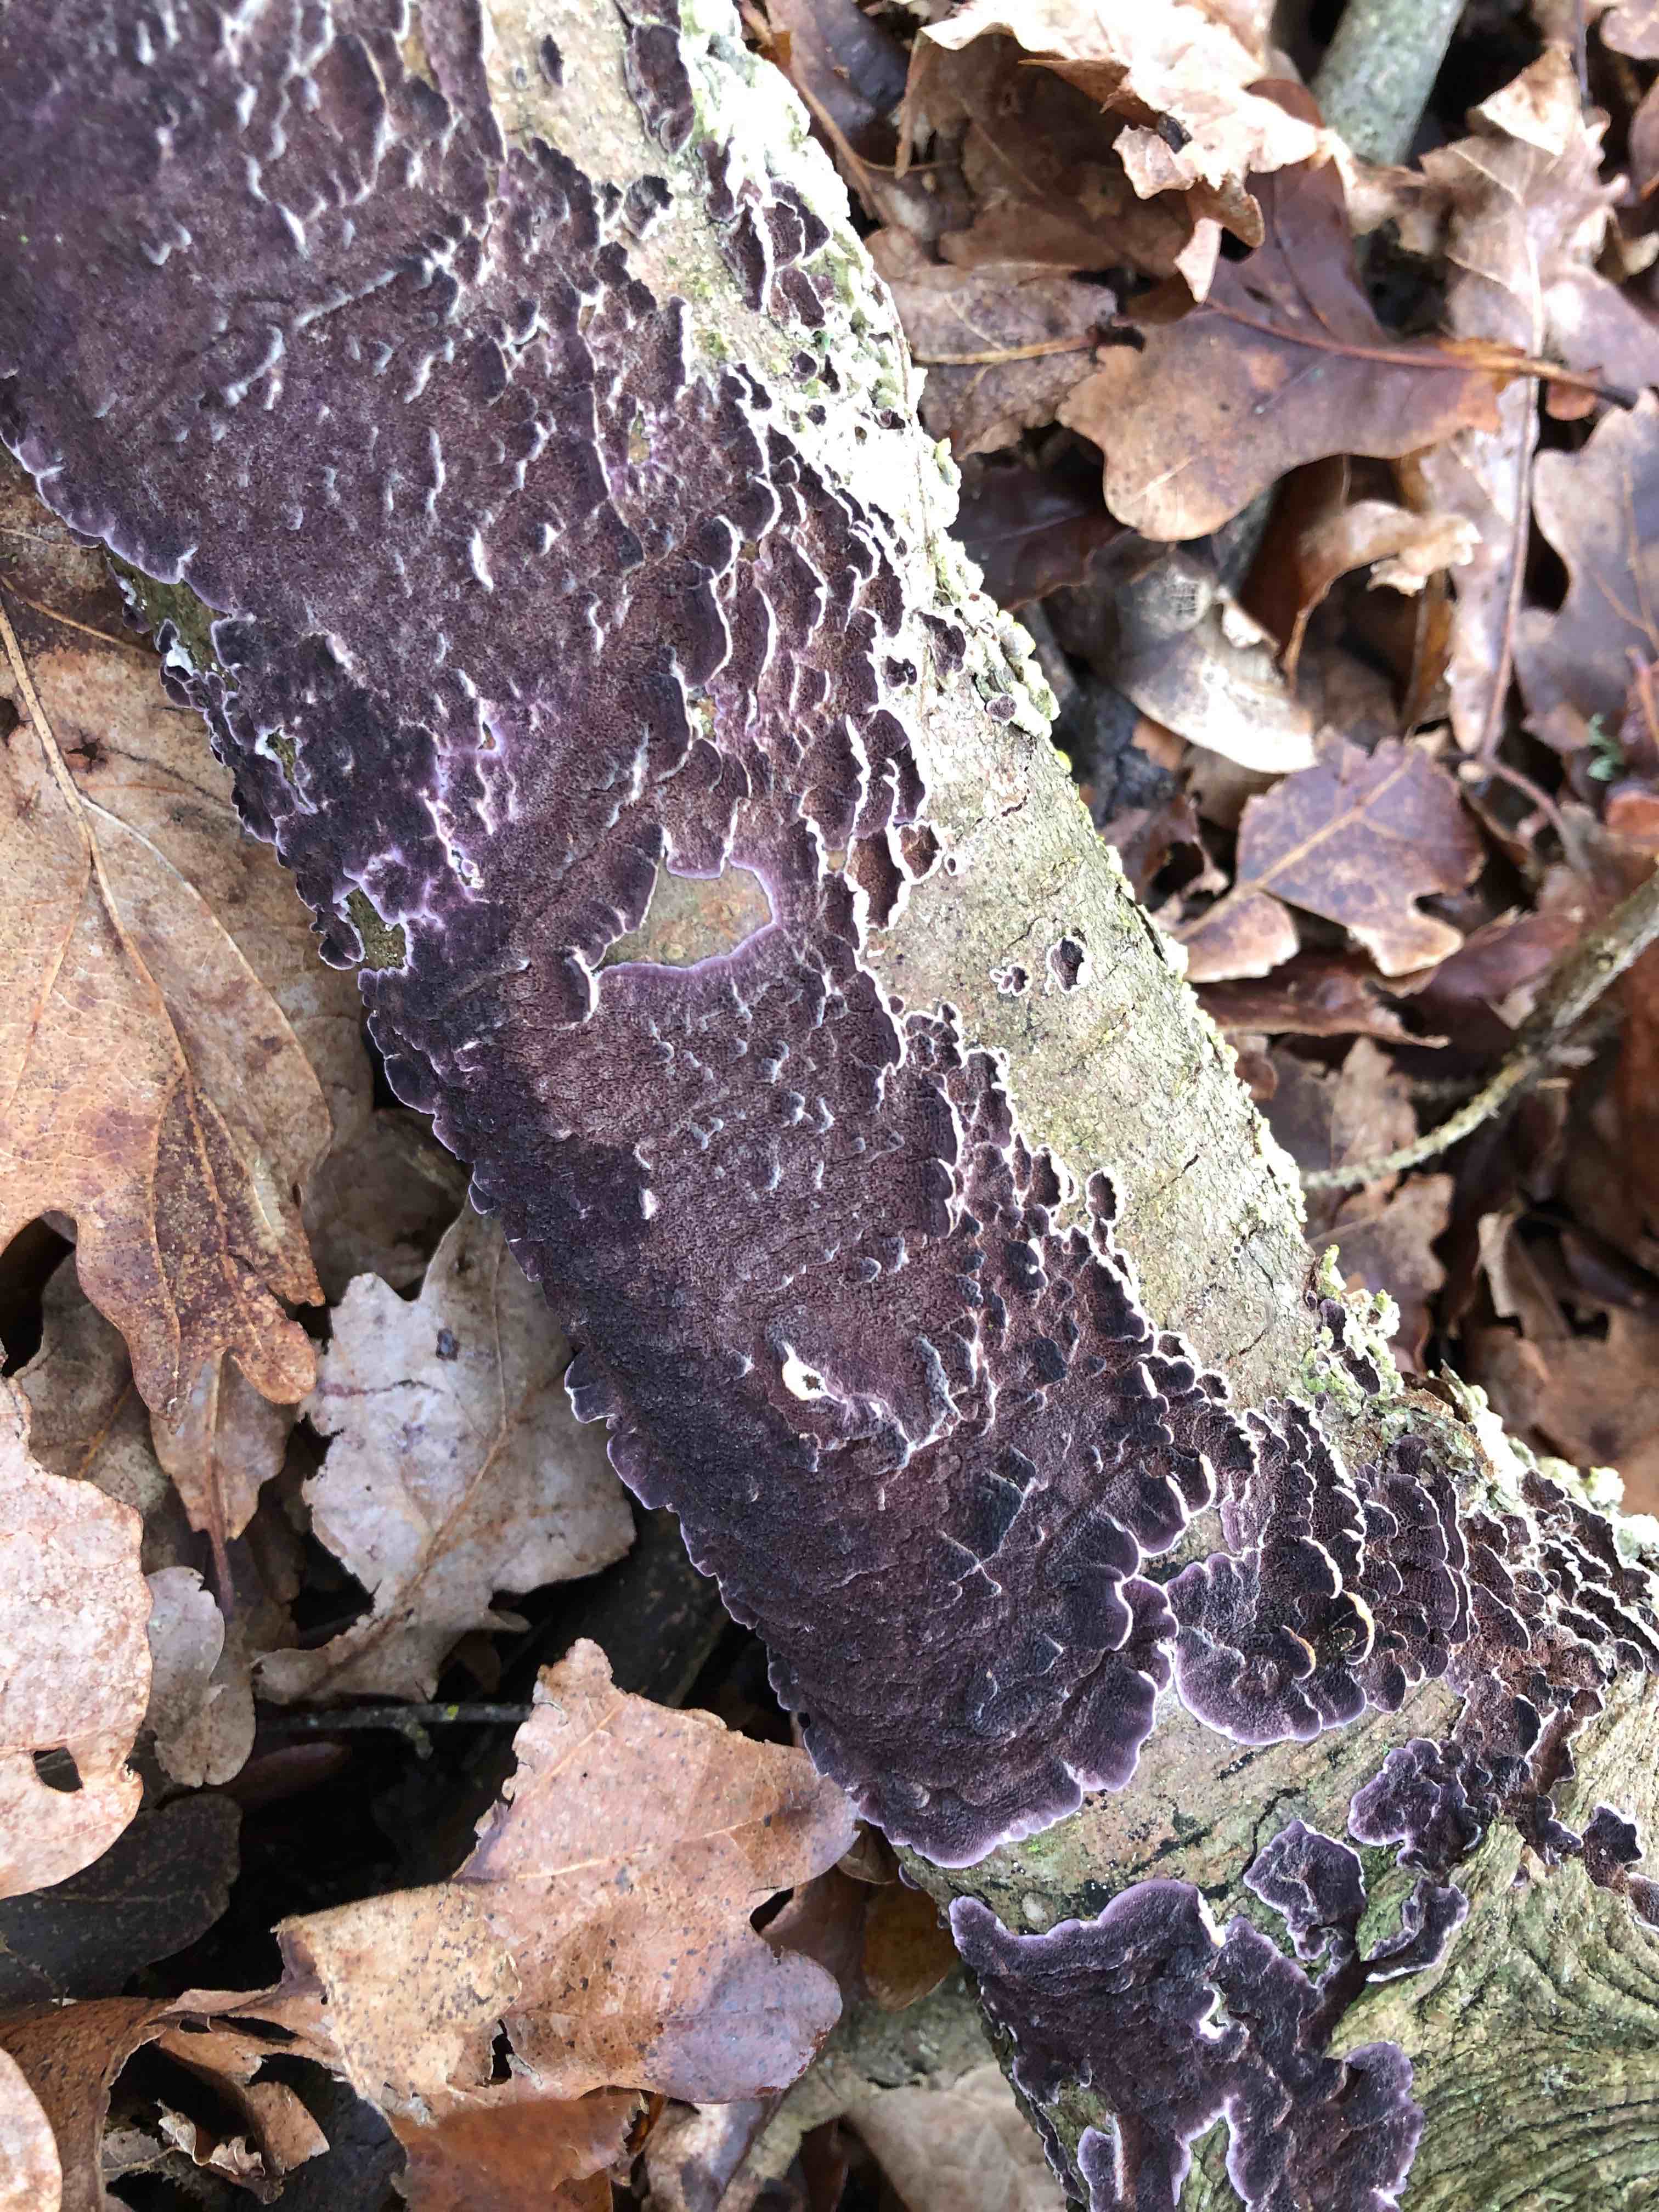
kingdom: Fungi
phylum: Basidiomycota
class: Agaricomycetes
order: Agaricales
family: Cyphellaceae
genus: Chondrostereum
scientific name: Chondrostereum purpureum
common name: purpurlædersvamp
